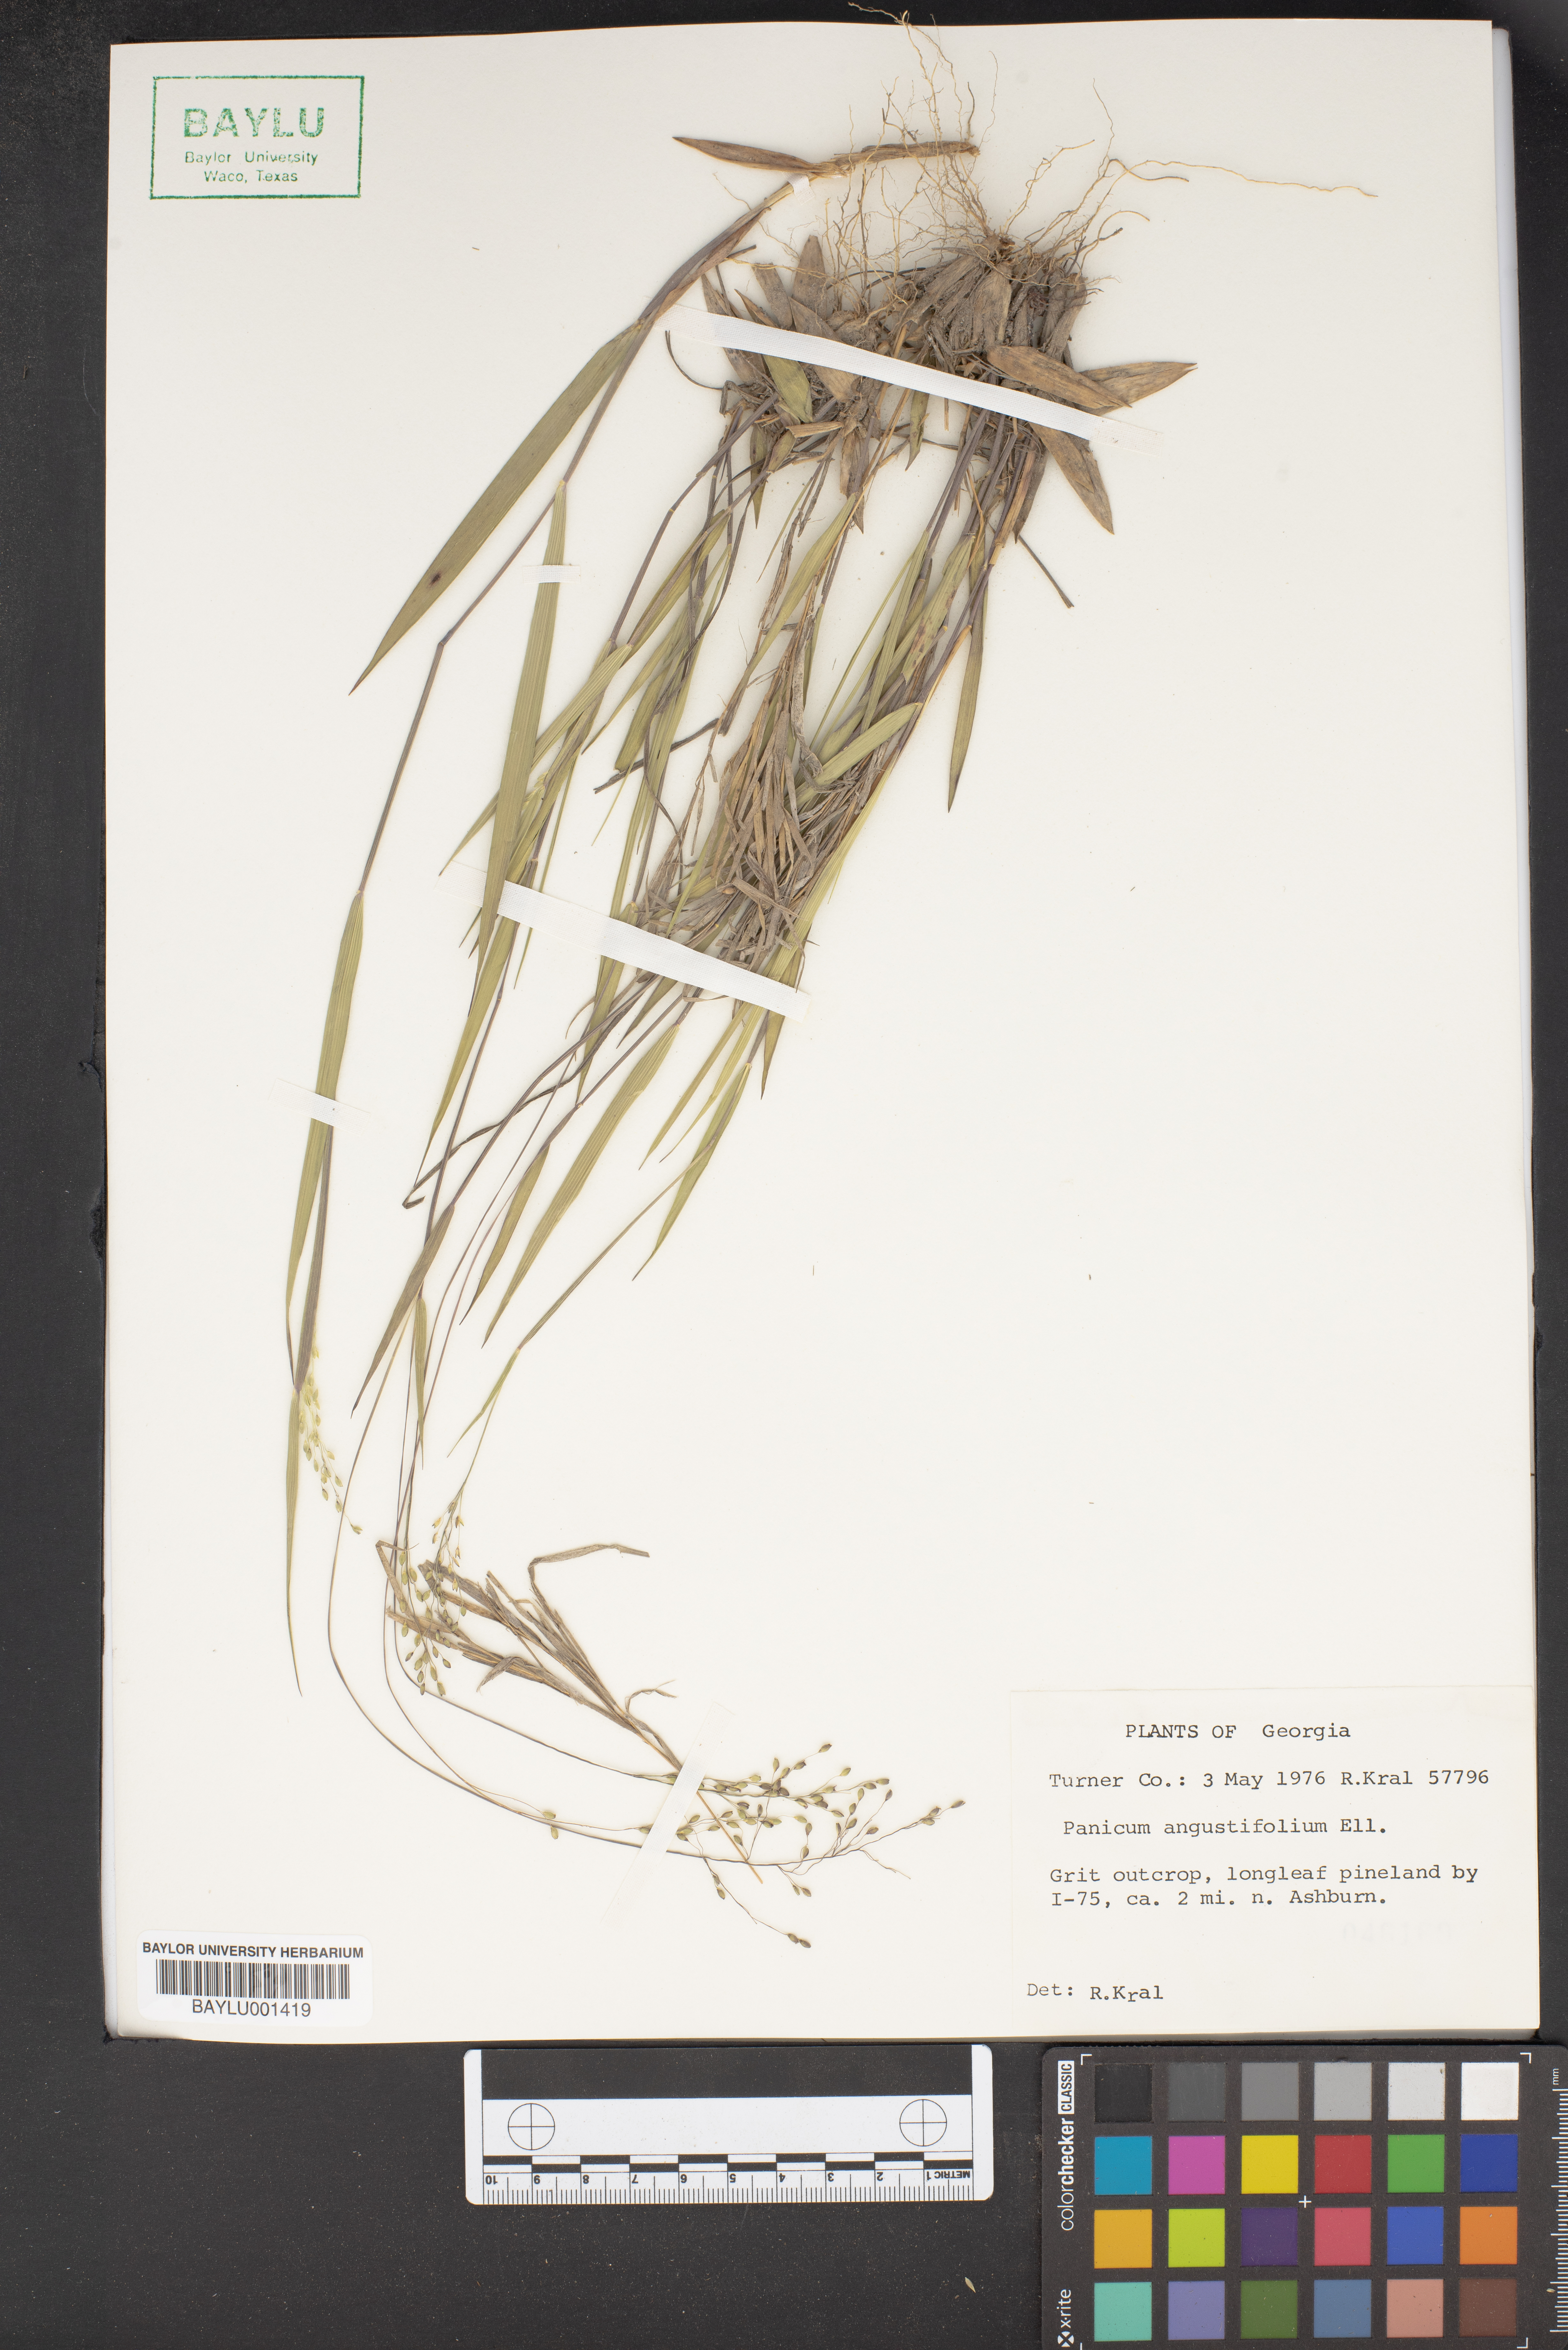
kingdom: Plantae
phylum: Tracheophyta
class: Liliopsida
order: Poales
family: Poaceae
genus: Dichanthelium
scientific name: Dichanthelium dichotomum
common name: Cypress panicgrass
